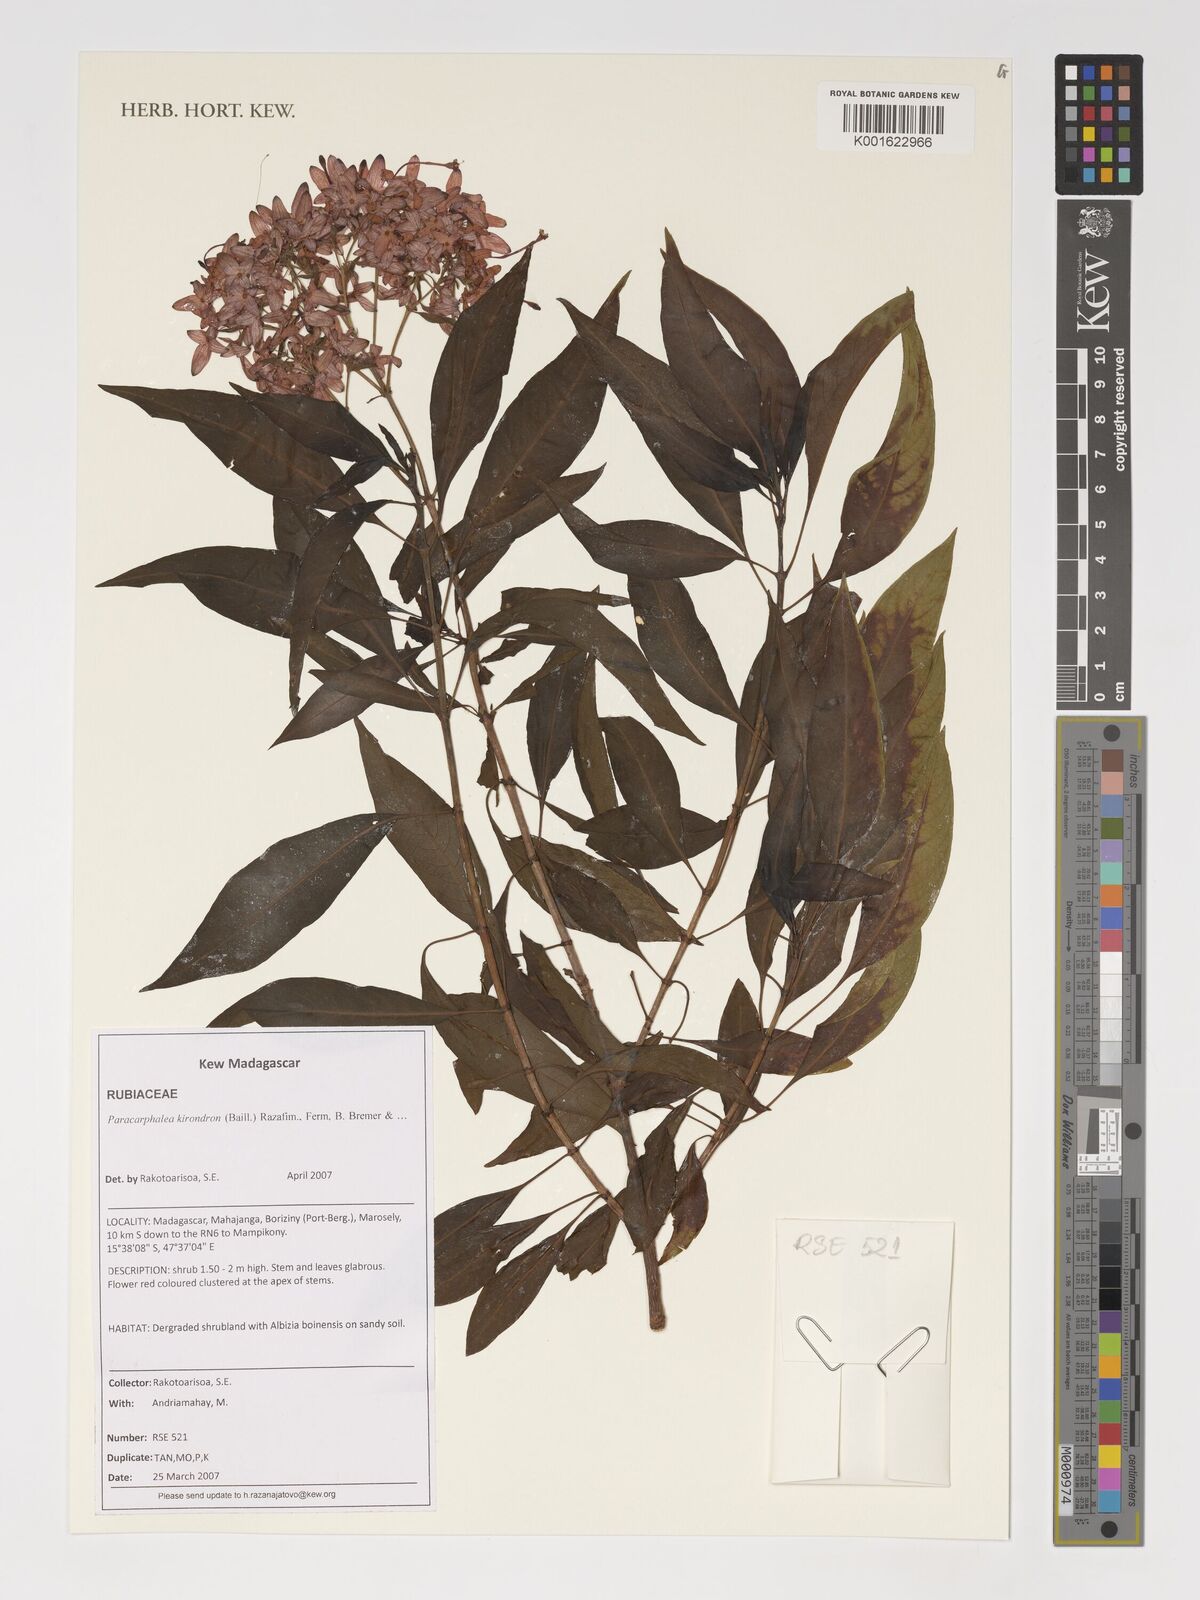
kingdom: Plantae
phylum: Tracheophyta
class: Magnoliopsida
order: Gentianales
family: Rubiaceae
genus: Paracarphalea
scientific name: Paracarphalea kirondron
